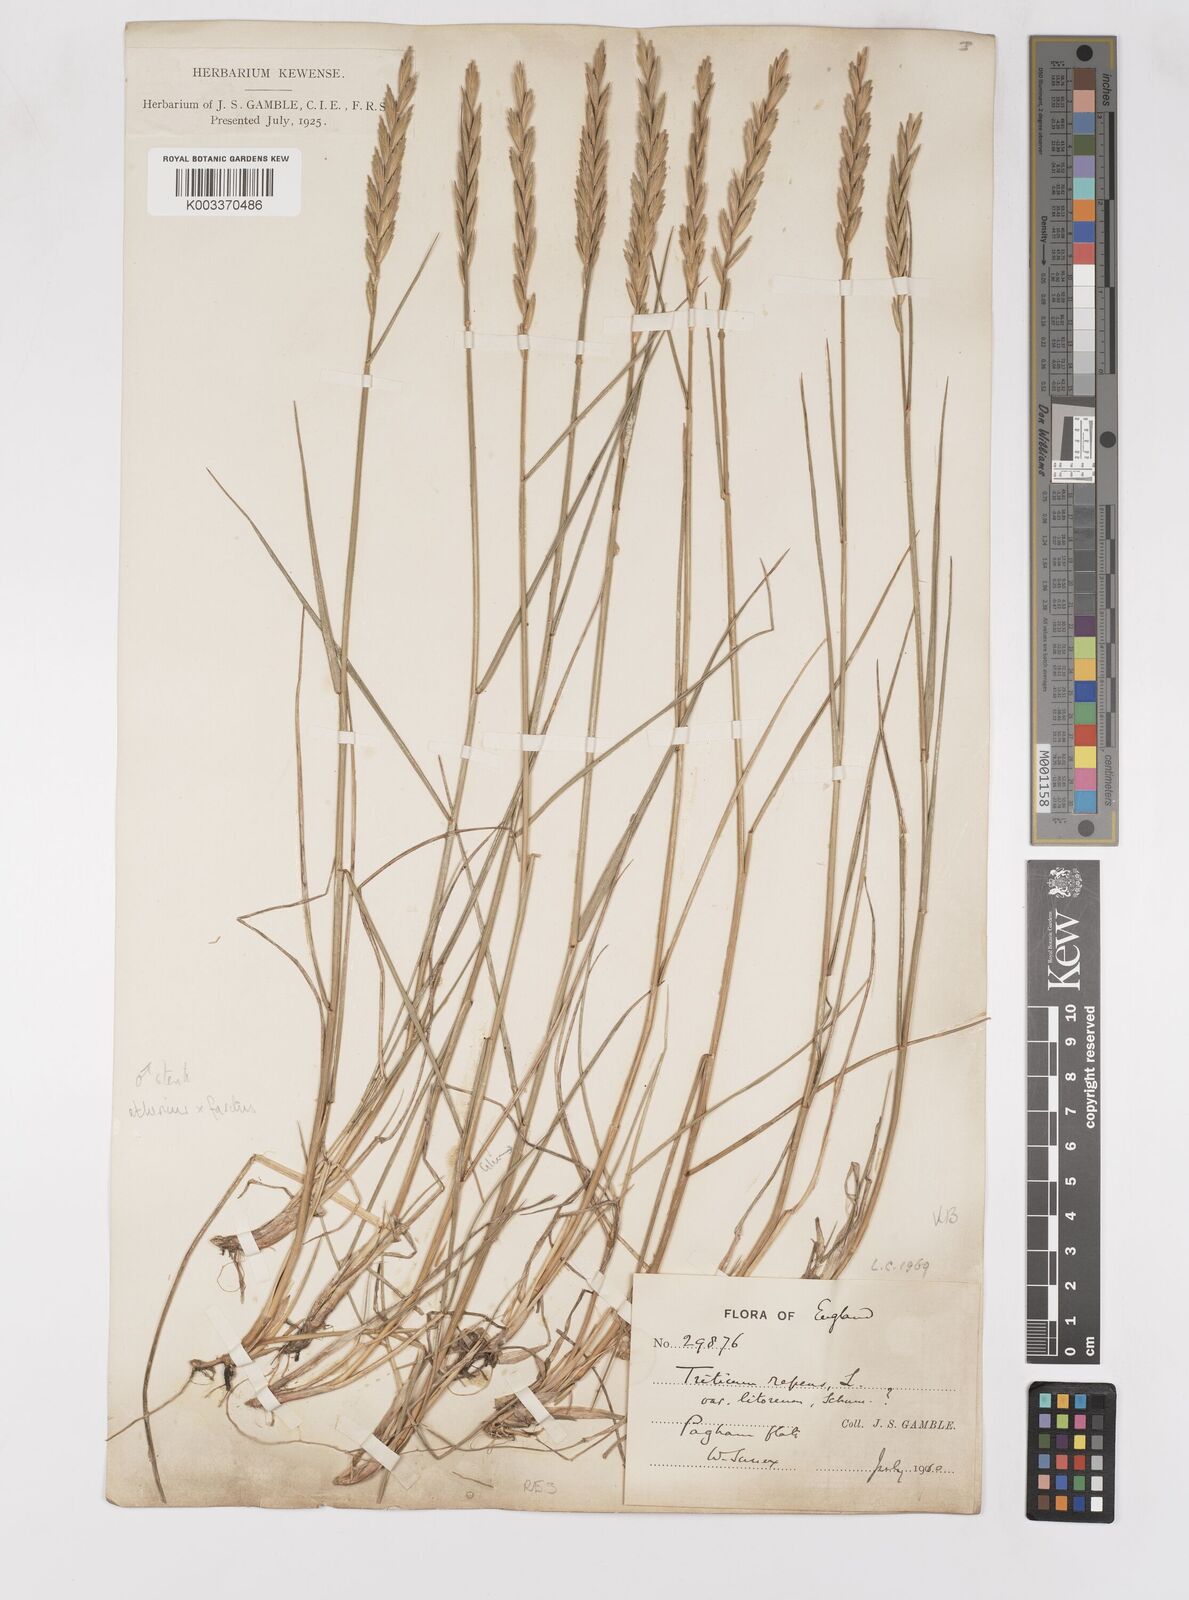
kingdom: Plantae
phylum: Tracheophyta
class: Liliopsida
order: Poales
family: Poaceae
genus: Thinoelymus
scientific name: Thinoelymus obtusiusculus
